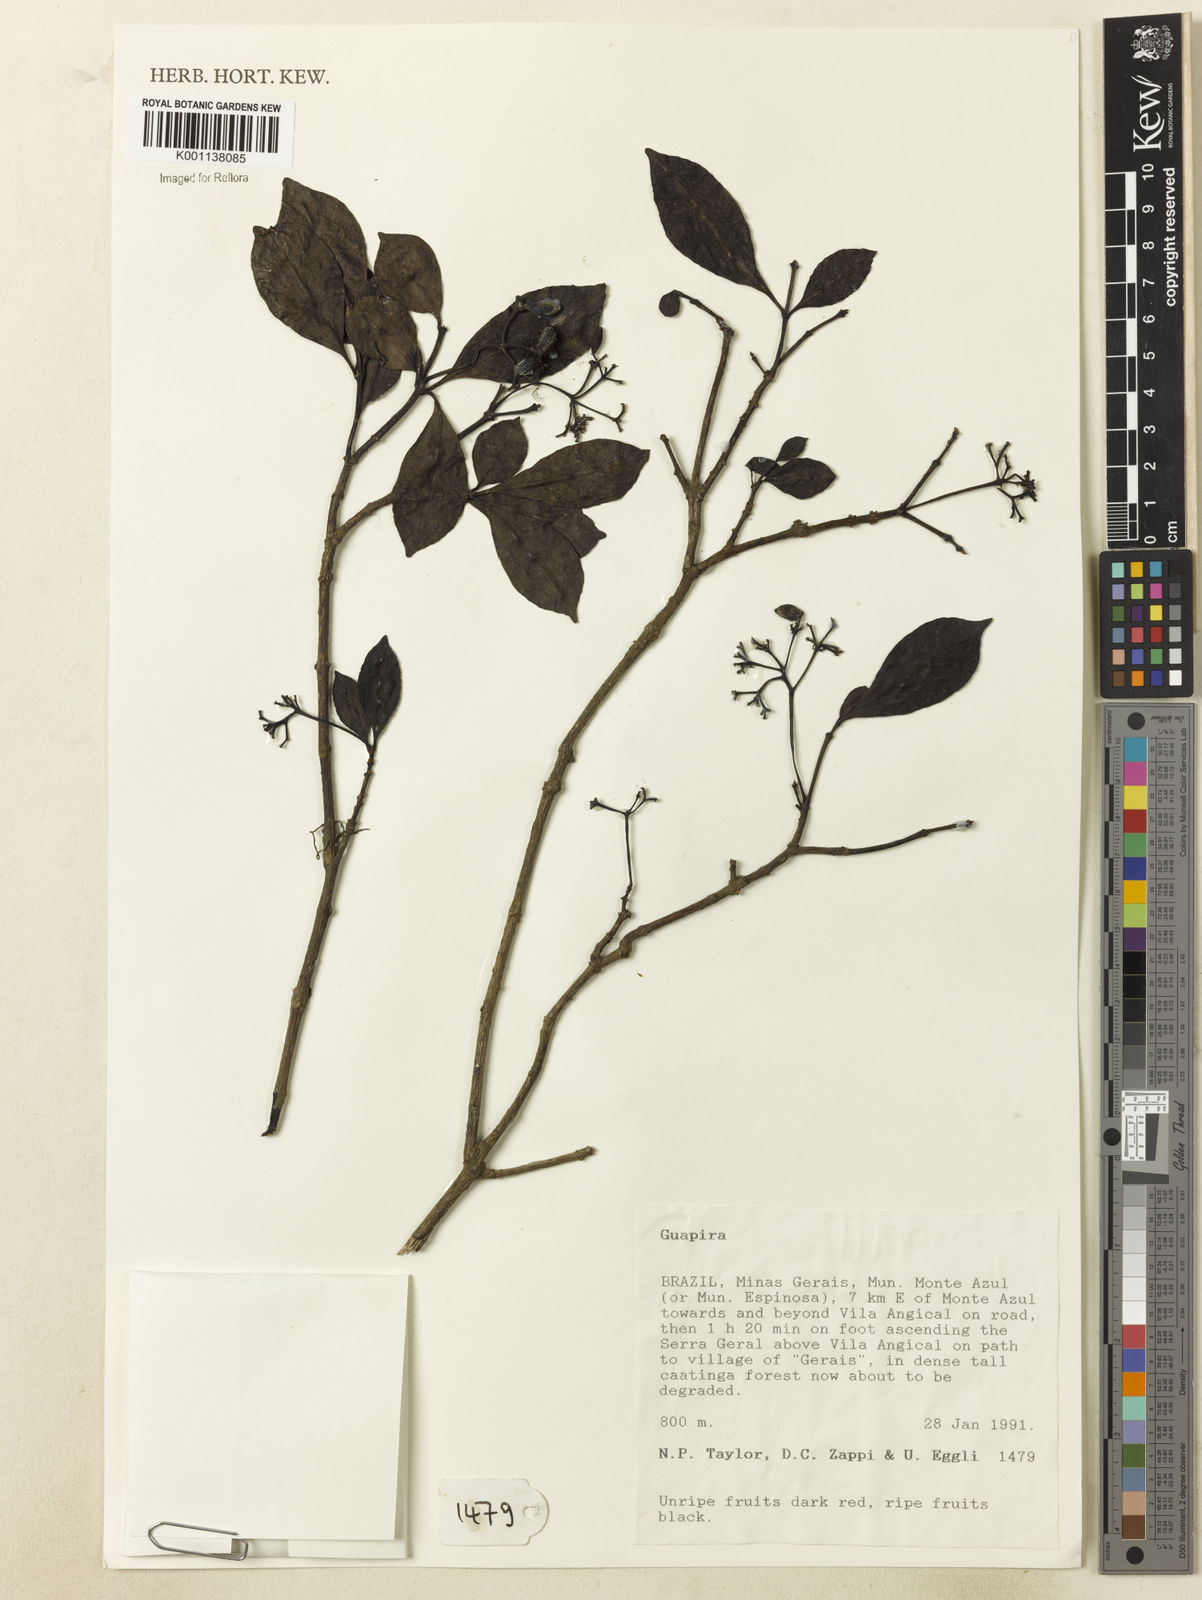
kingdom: Plantae
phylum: Tracheophyta
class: Magnoliopsida
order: Caryophyllales
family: Nyctaginaceae
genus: Neea
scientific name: Neea
